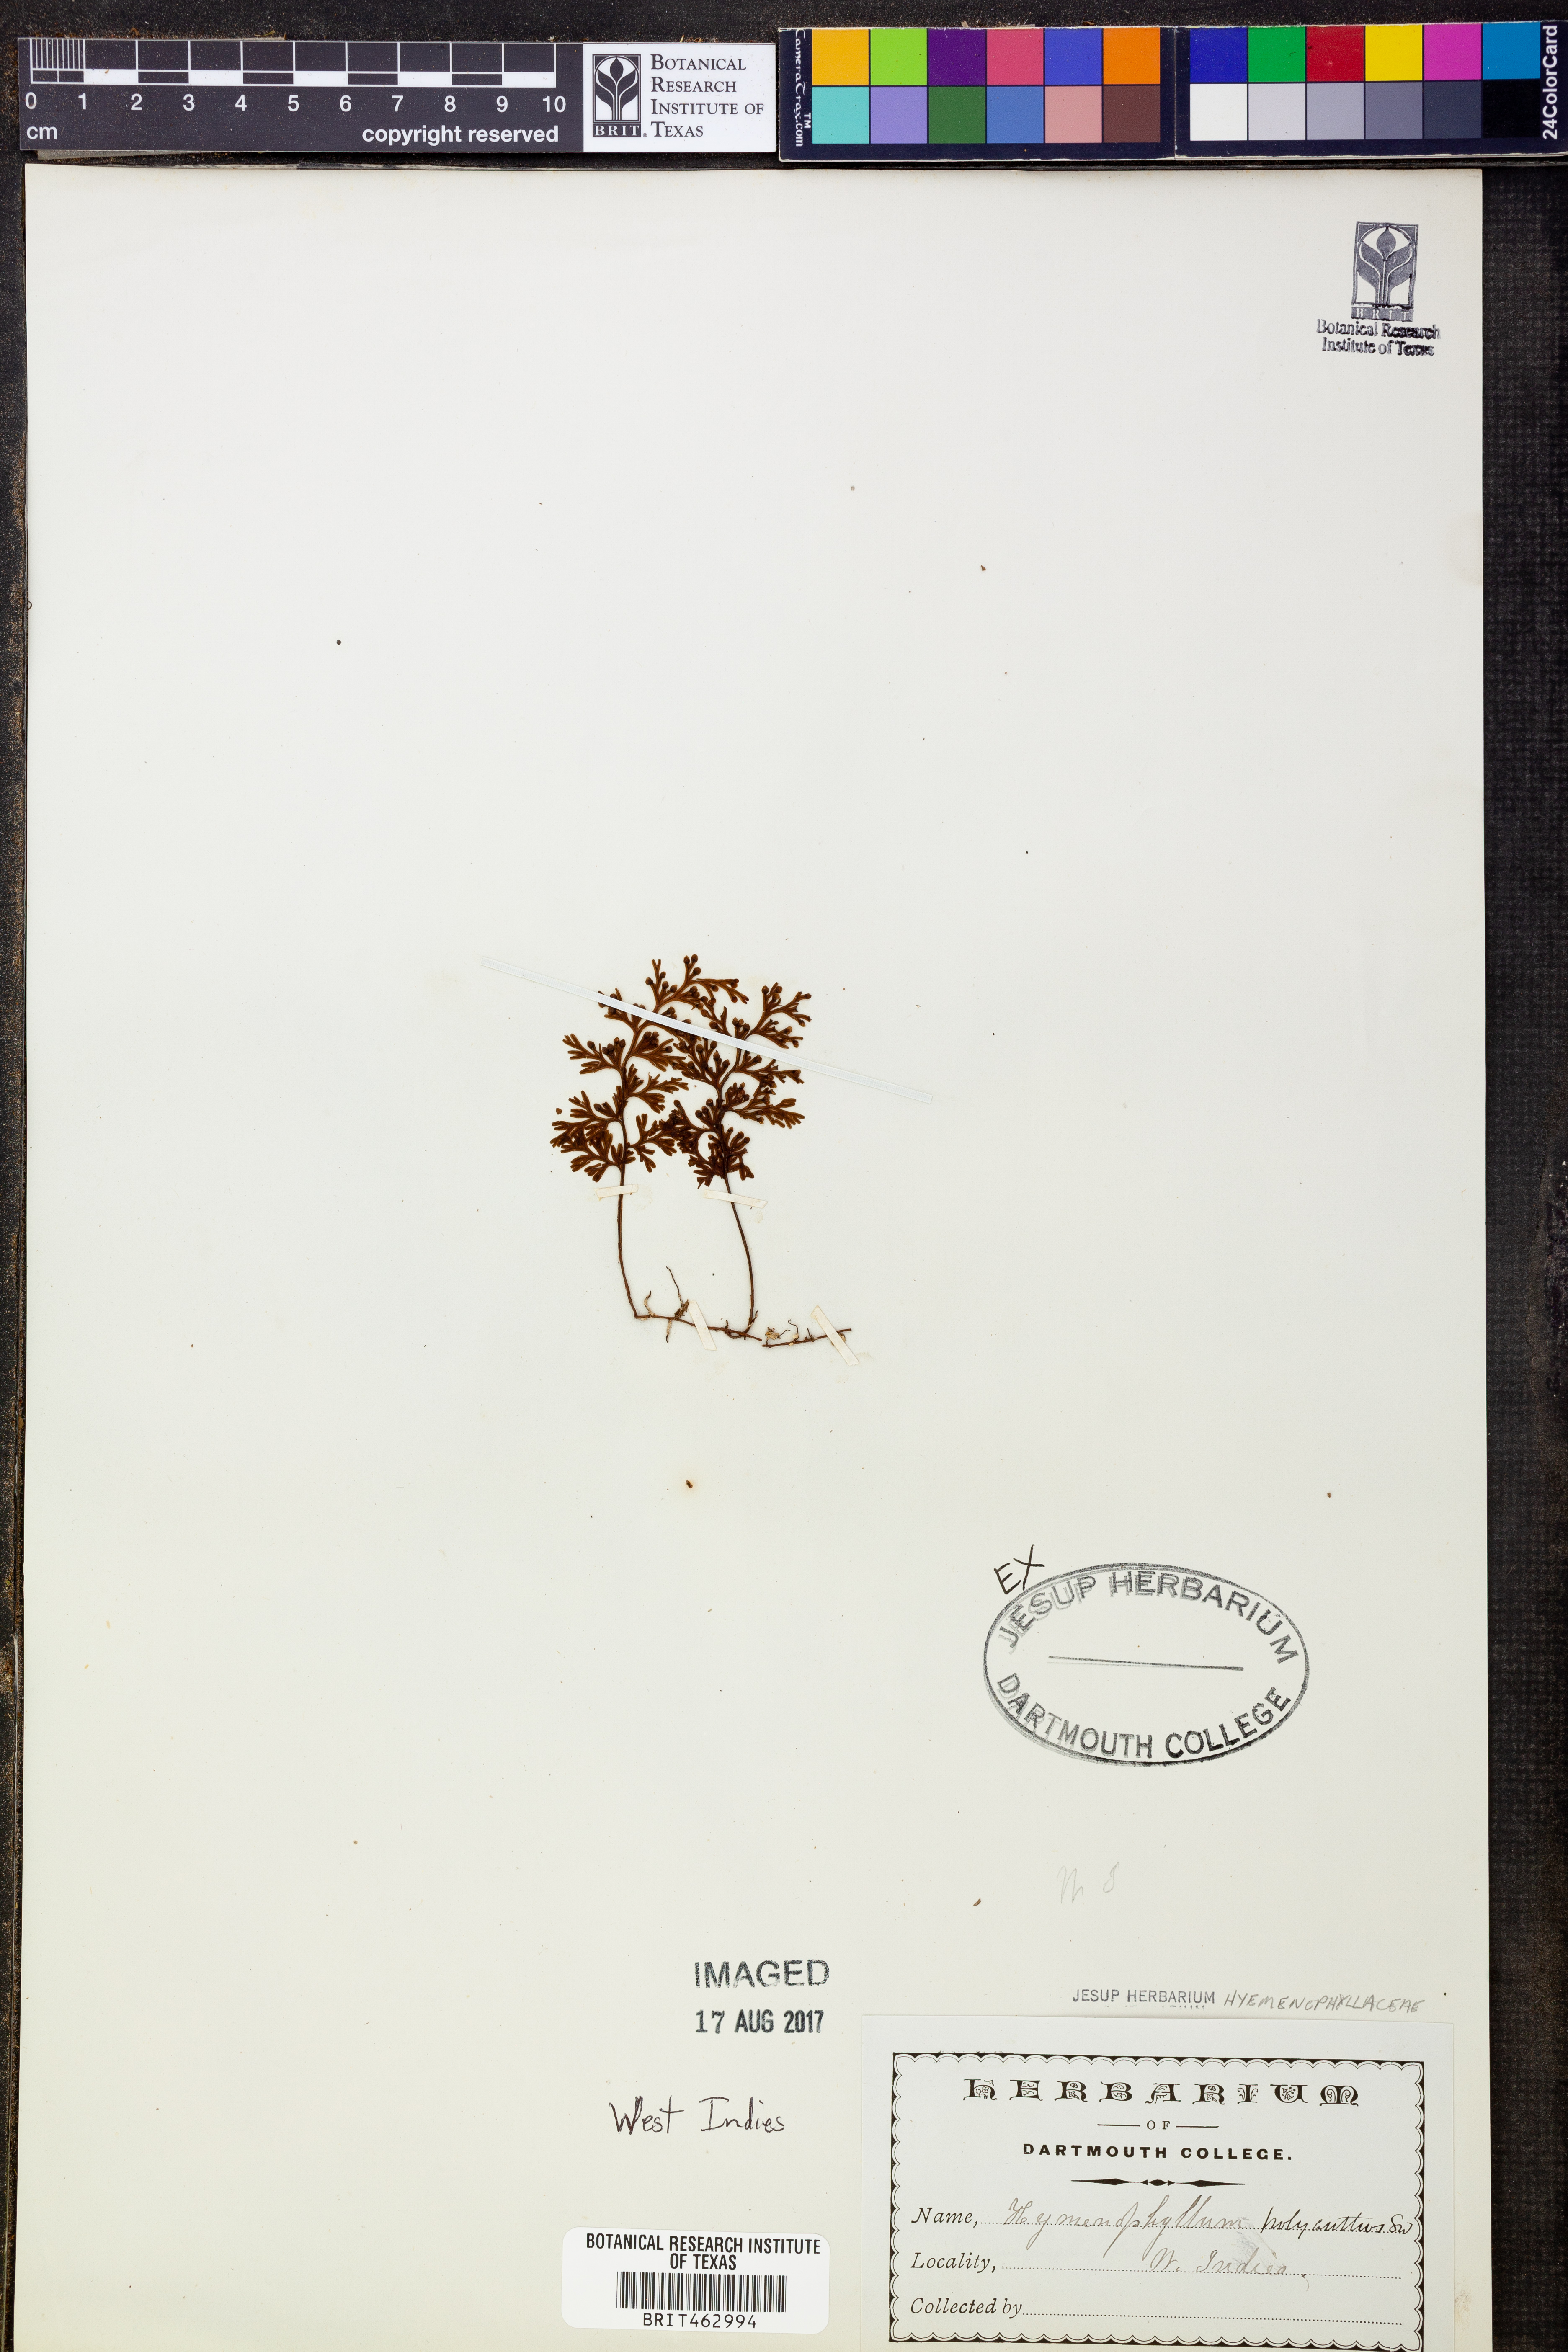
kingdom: Plantae
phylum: Tracheophyta
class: Polypodiopsida
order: Hymenophyllales
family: Hymenophyllaceae
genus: Hymenophyllum
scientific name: Hymenophyllum polyanthos
